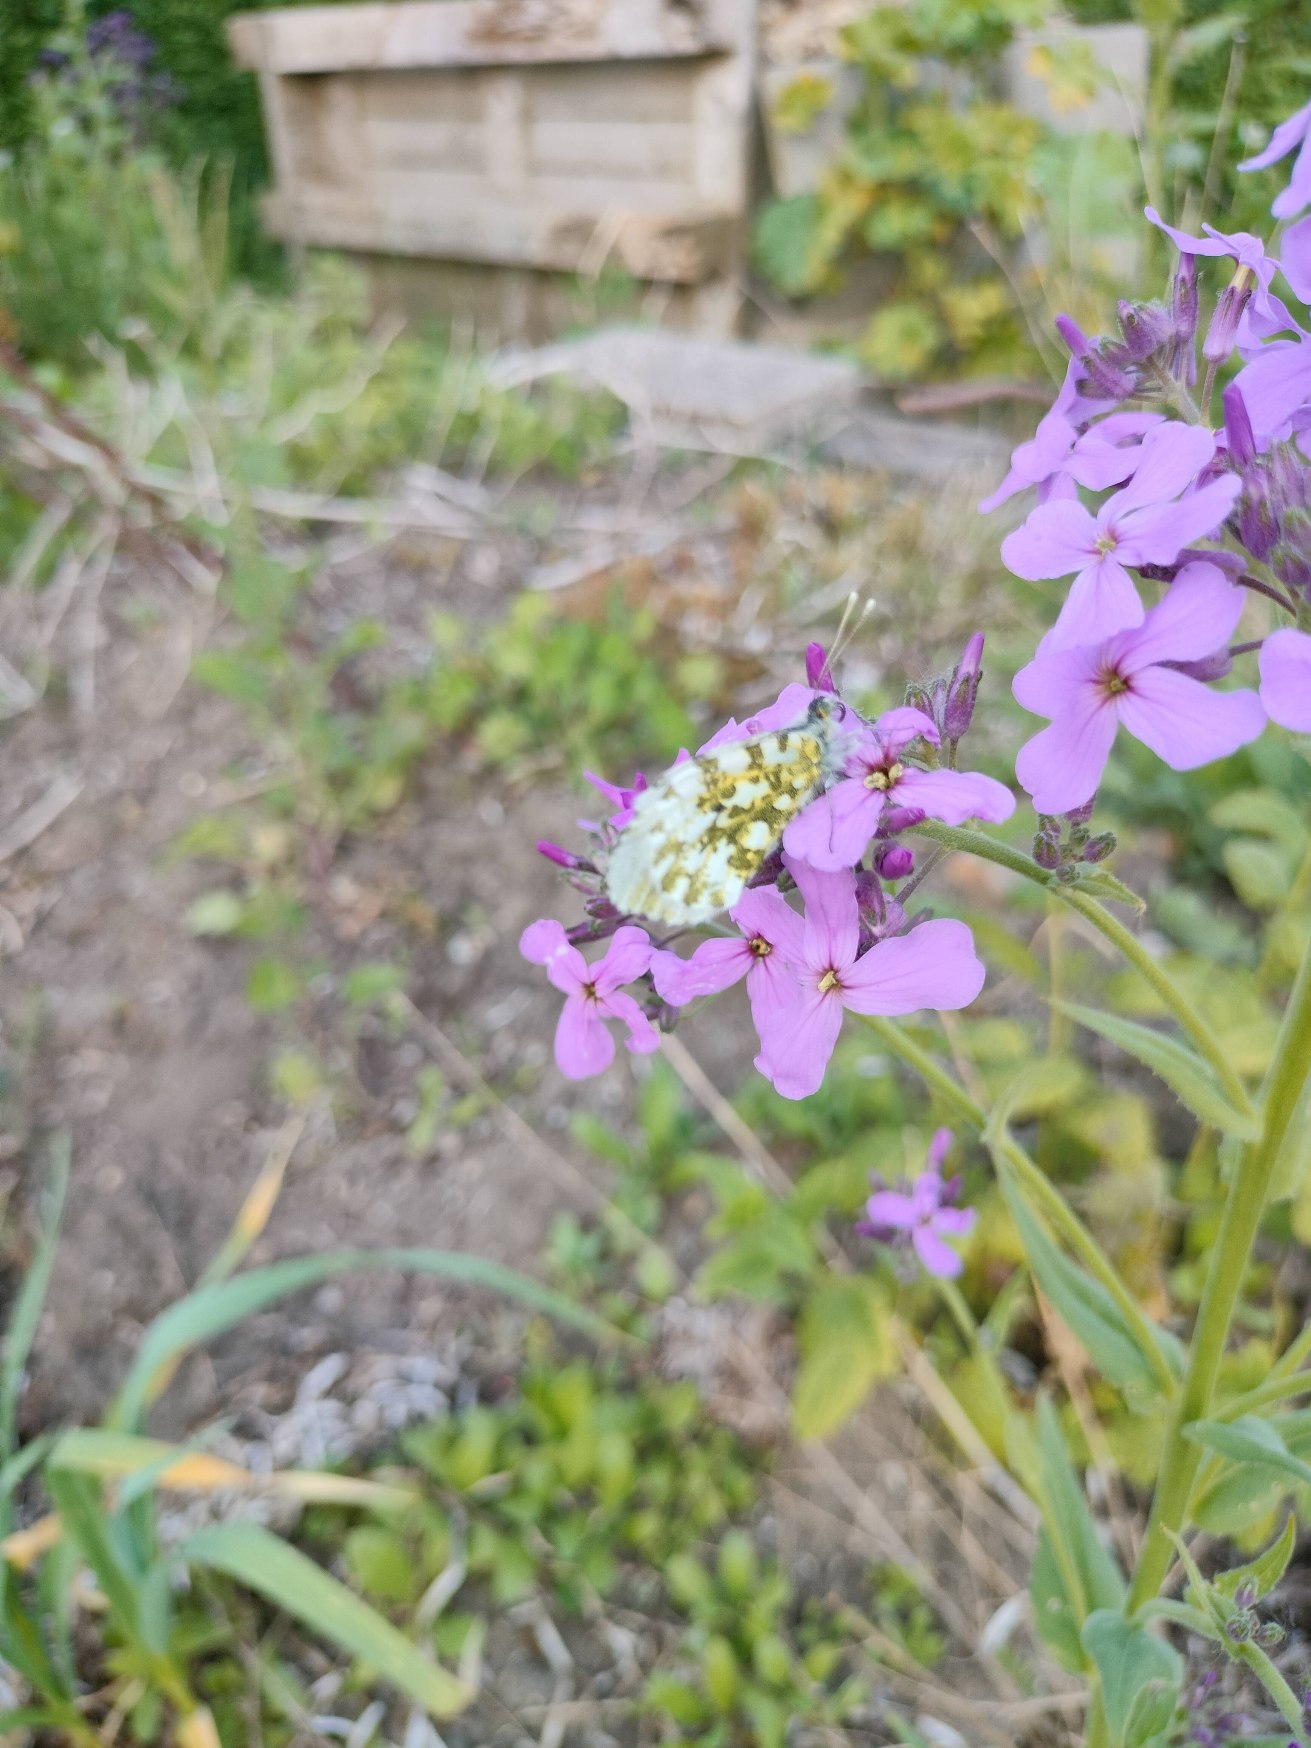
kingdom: Animalia
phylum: Arthropoda
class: Insecta
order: Lepidoptera
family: Pieridae
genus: Anthocharis
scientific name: Anthocharis cardamines
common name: Aurora
